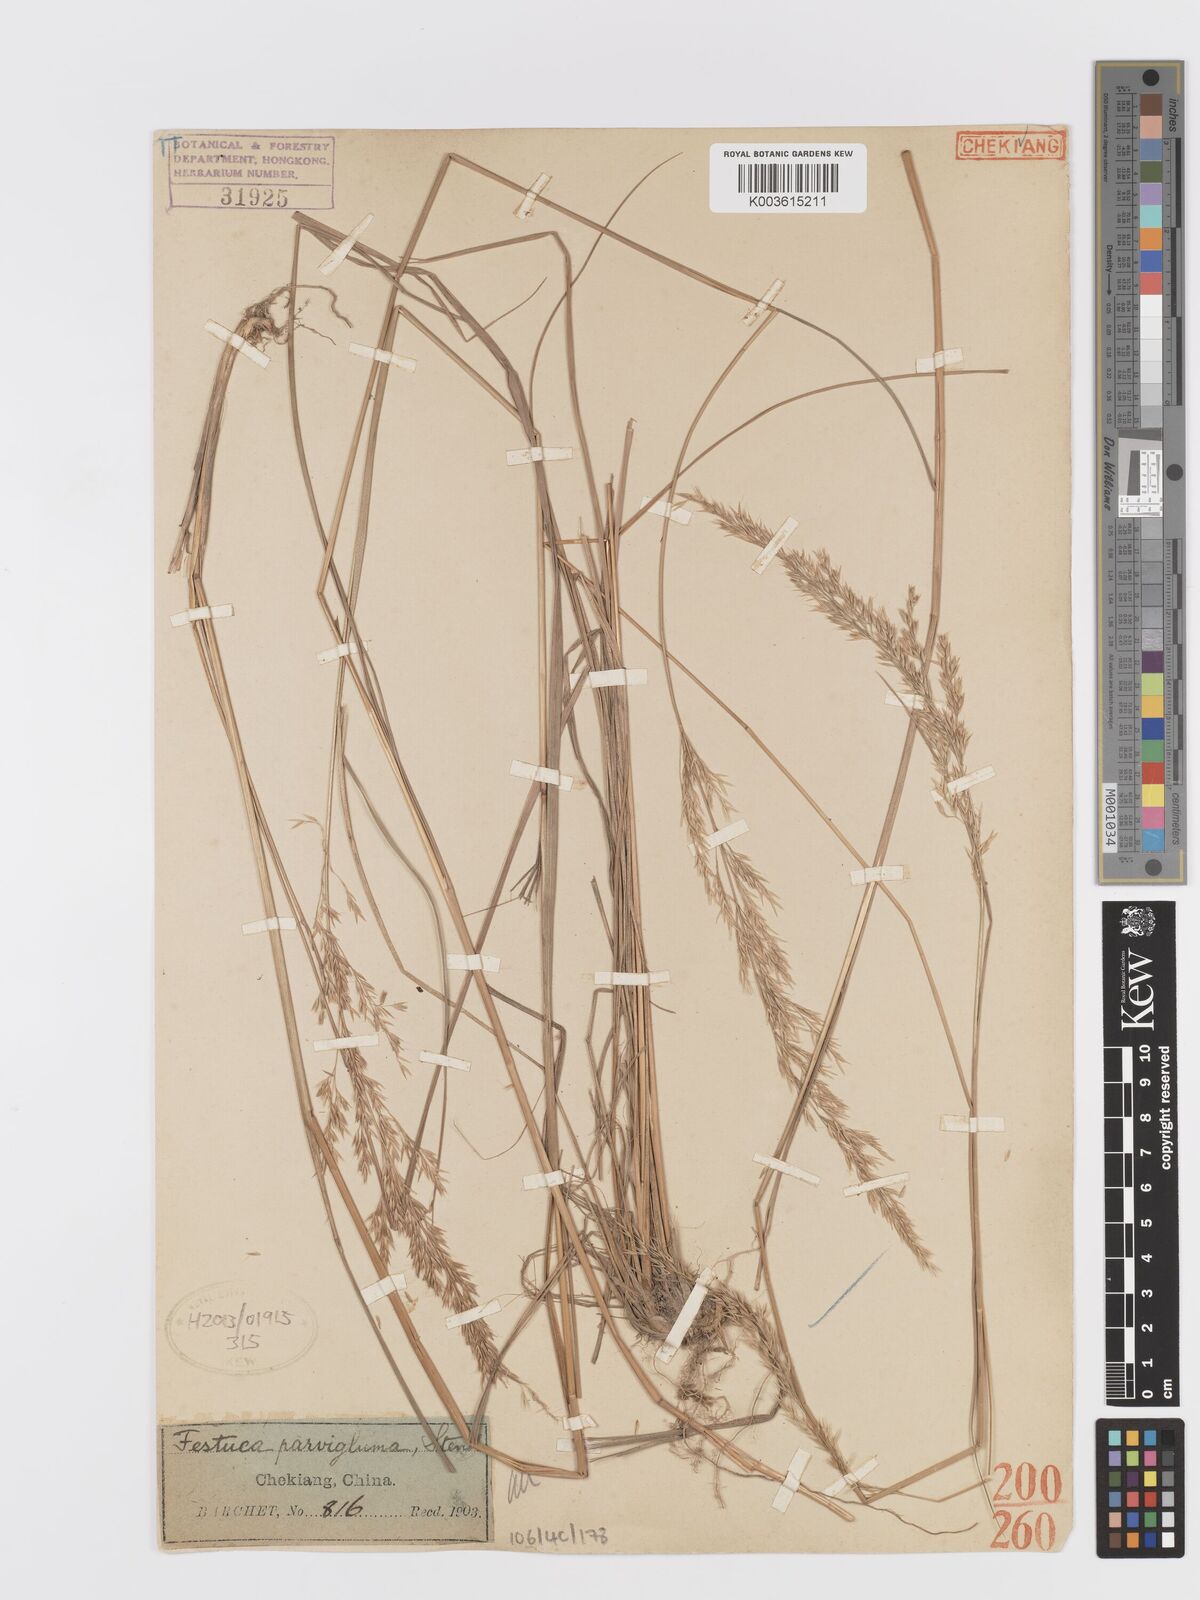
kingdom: Plantae
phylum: Tracheophyta
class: Liliopsida
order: Poales
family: Poaceae
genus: Trisetum
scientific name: Trisetum
